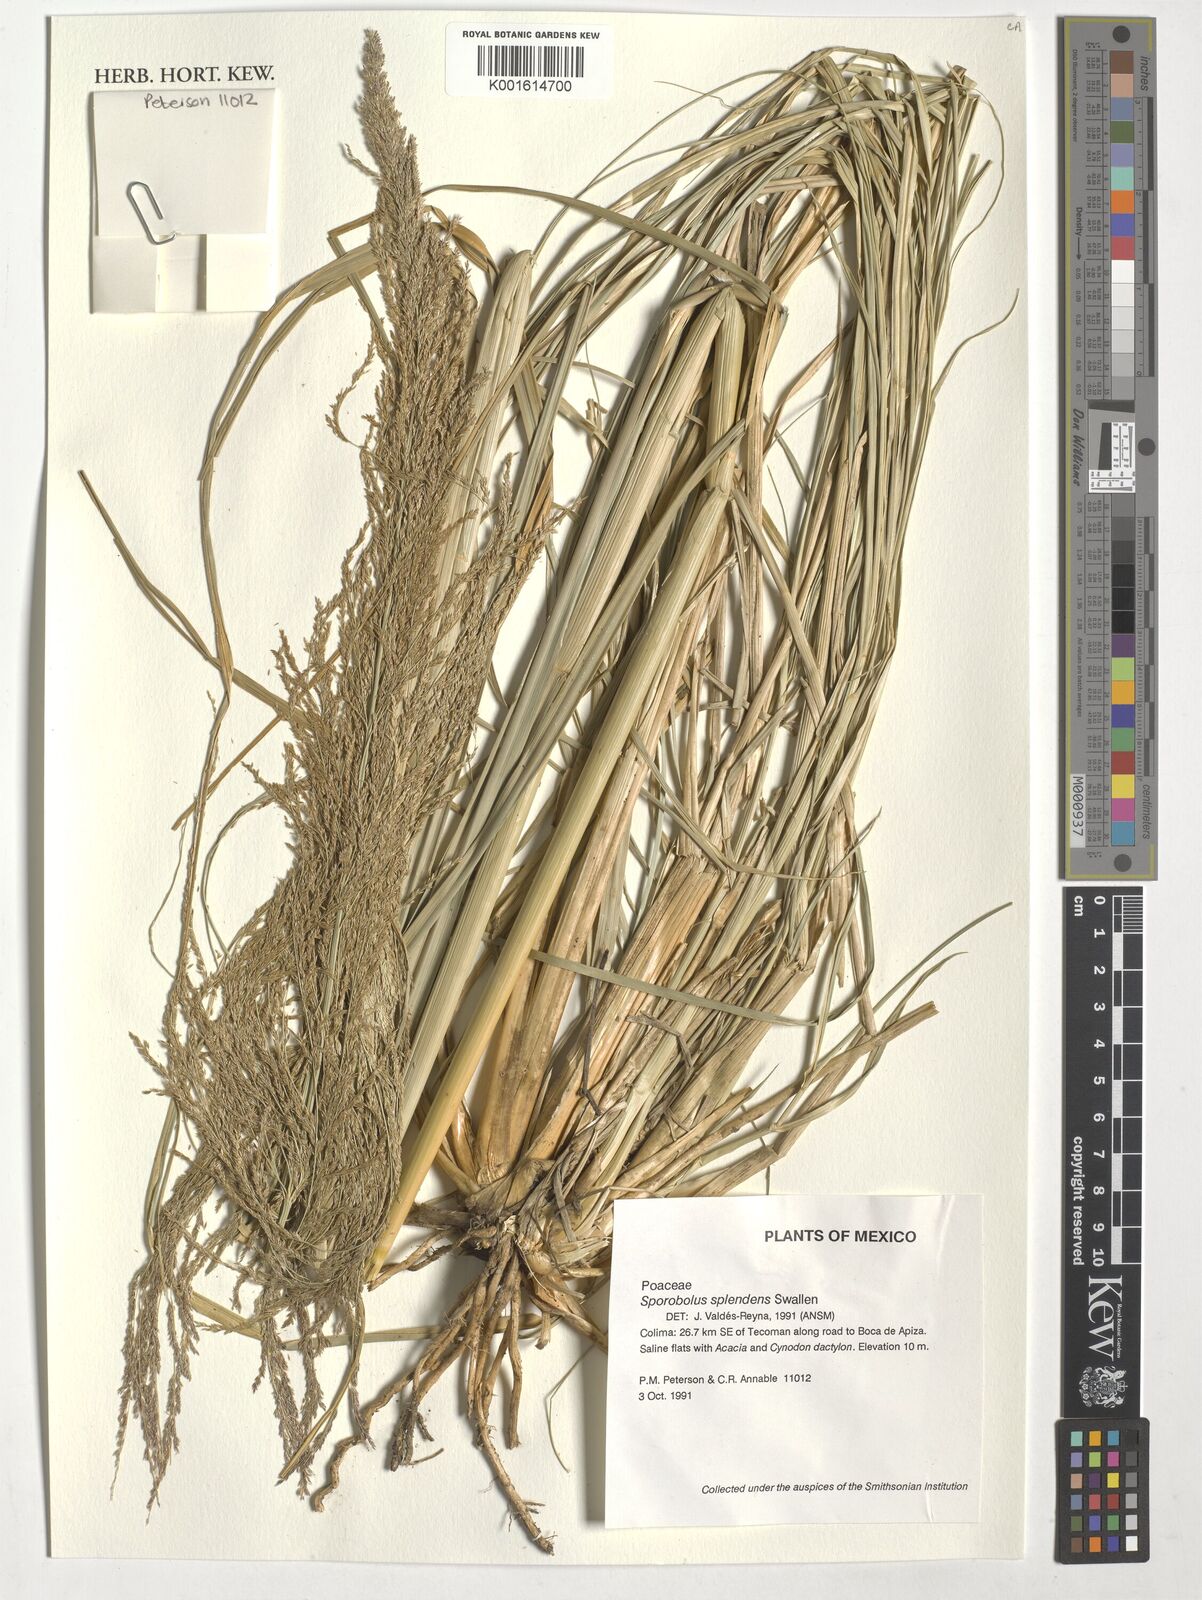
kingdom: Plantae
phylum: Tracheophyta
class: Liliopsida
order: Poales
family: Poaceae
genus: Sporobolus
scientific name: Sporobolus splendens
